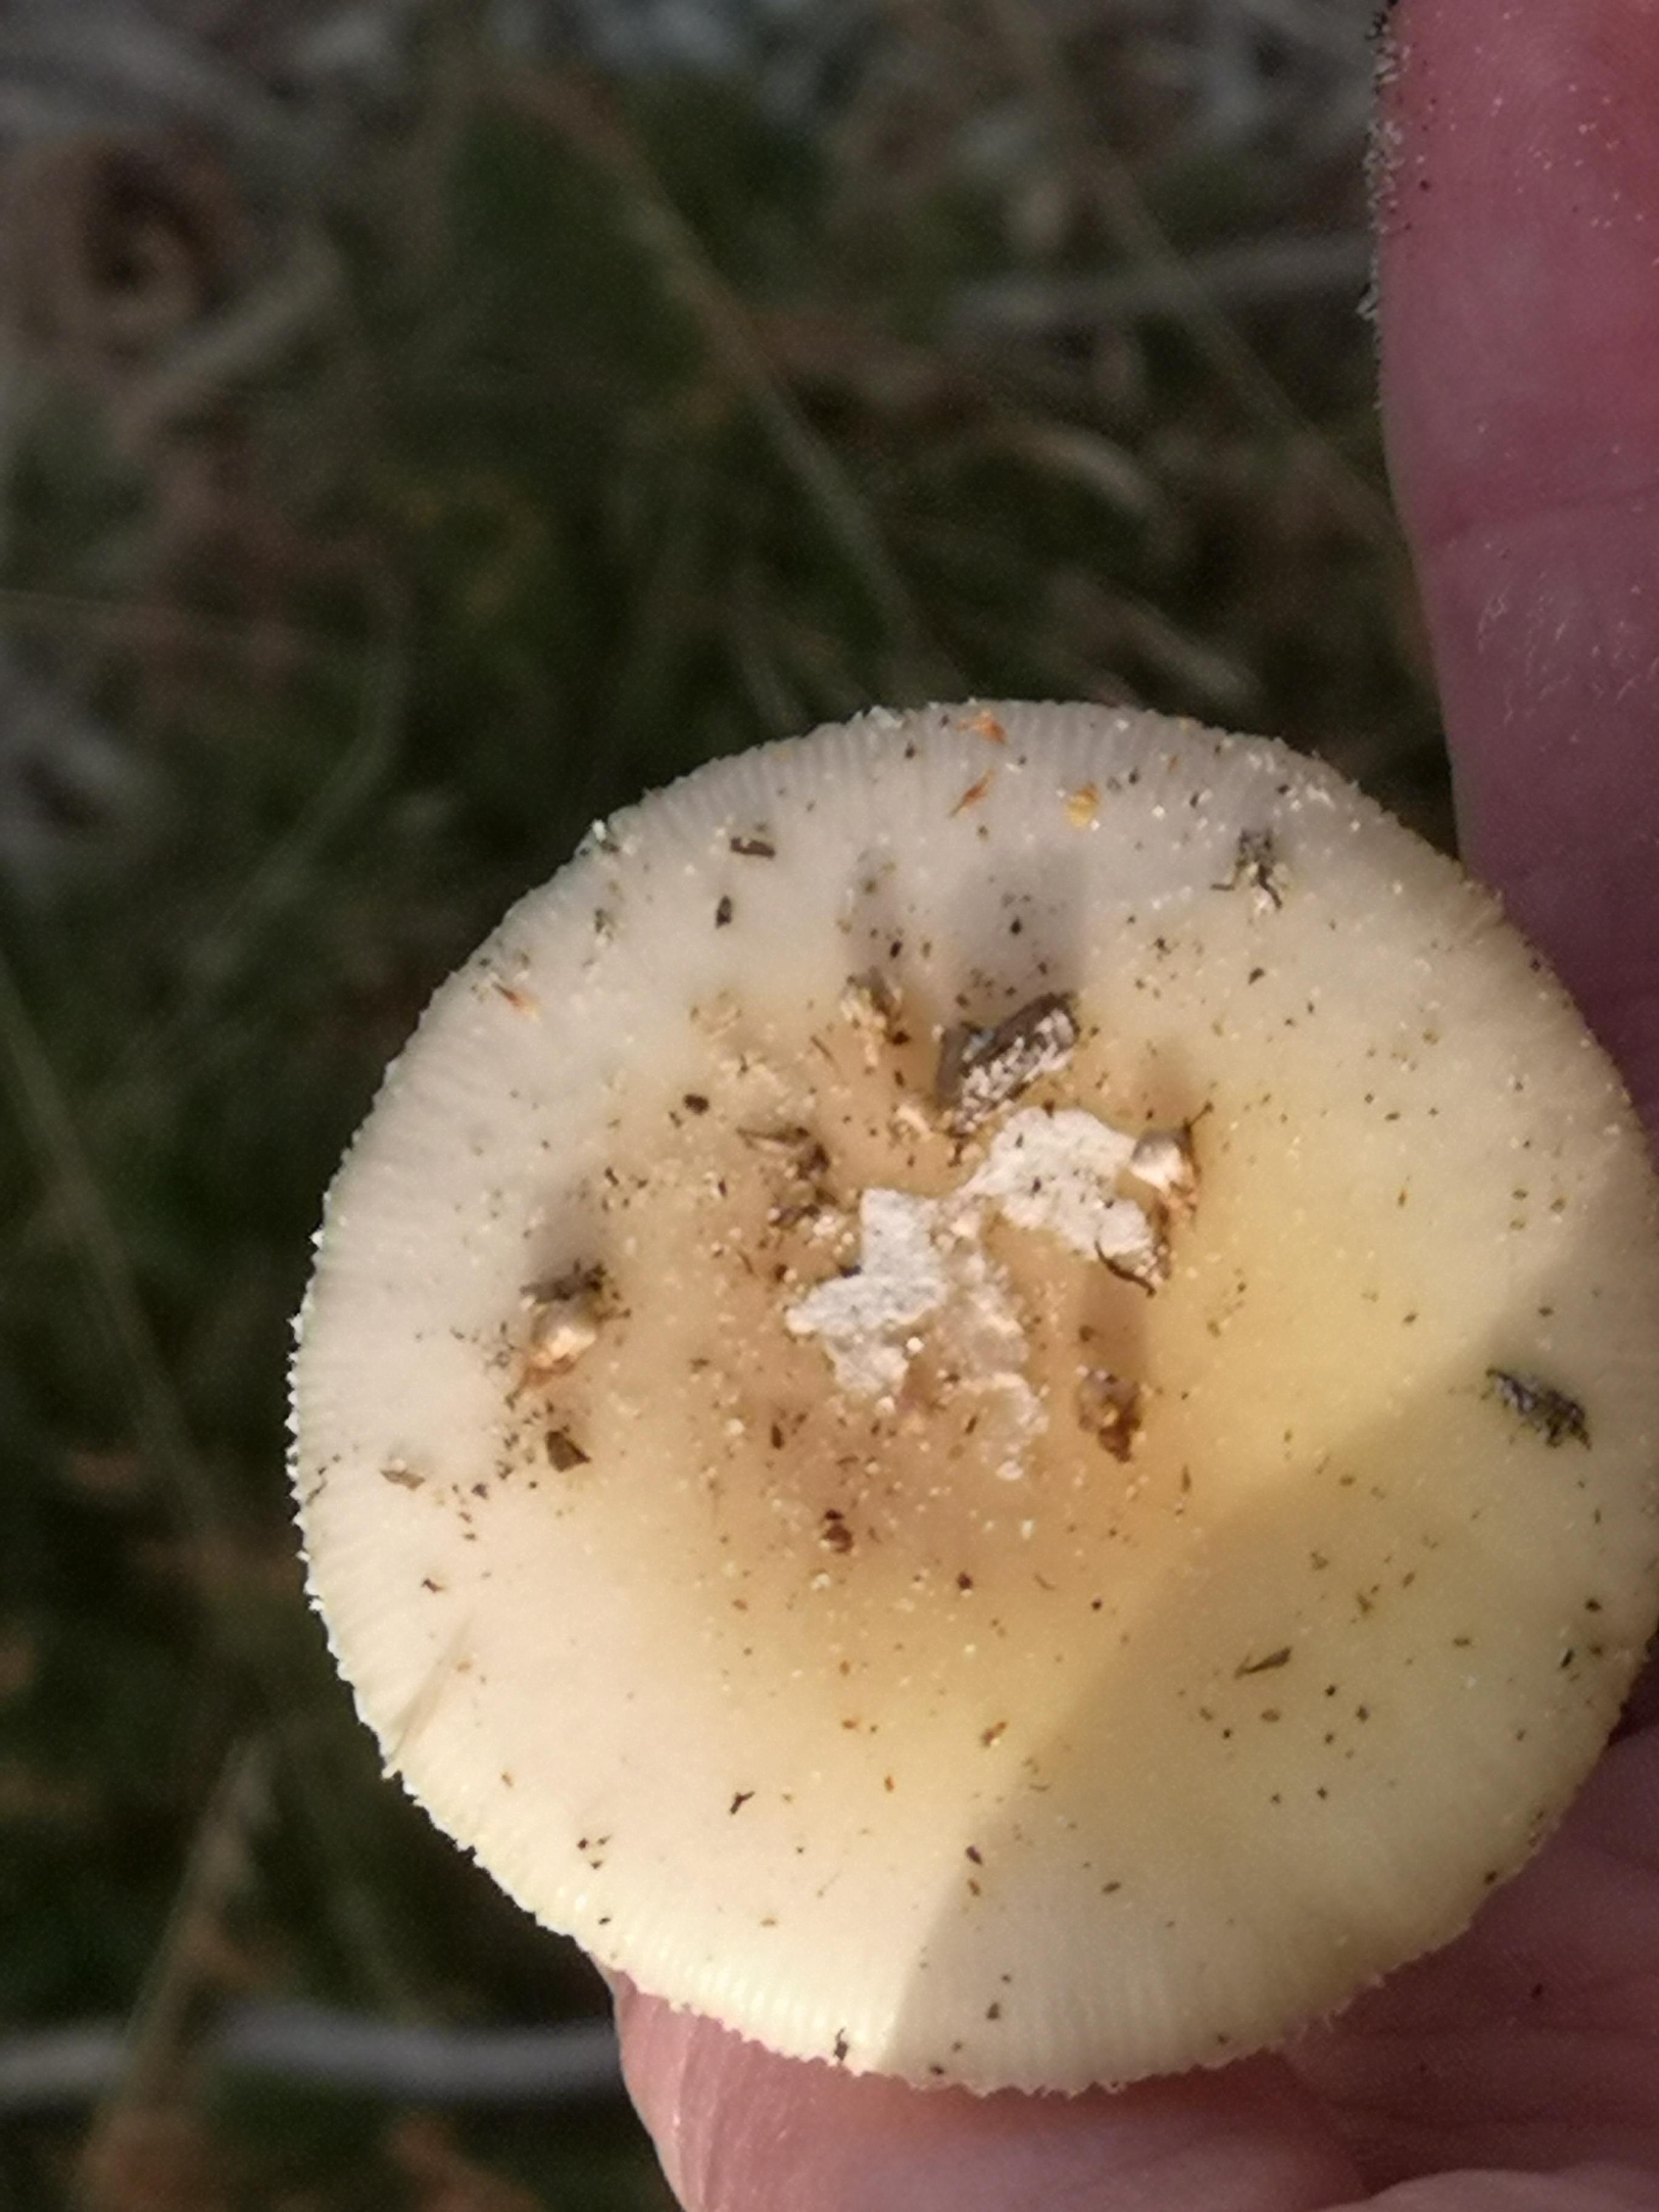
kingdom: Fungi
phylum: Basidiomycota
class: Agaricomycetes
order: Agaricales
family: Amanitaceae
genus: Amanita
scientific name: Amanita gemmata
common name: okkergul fluesvamp
